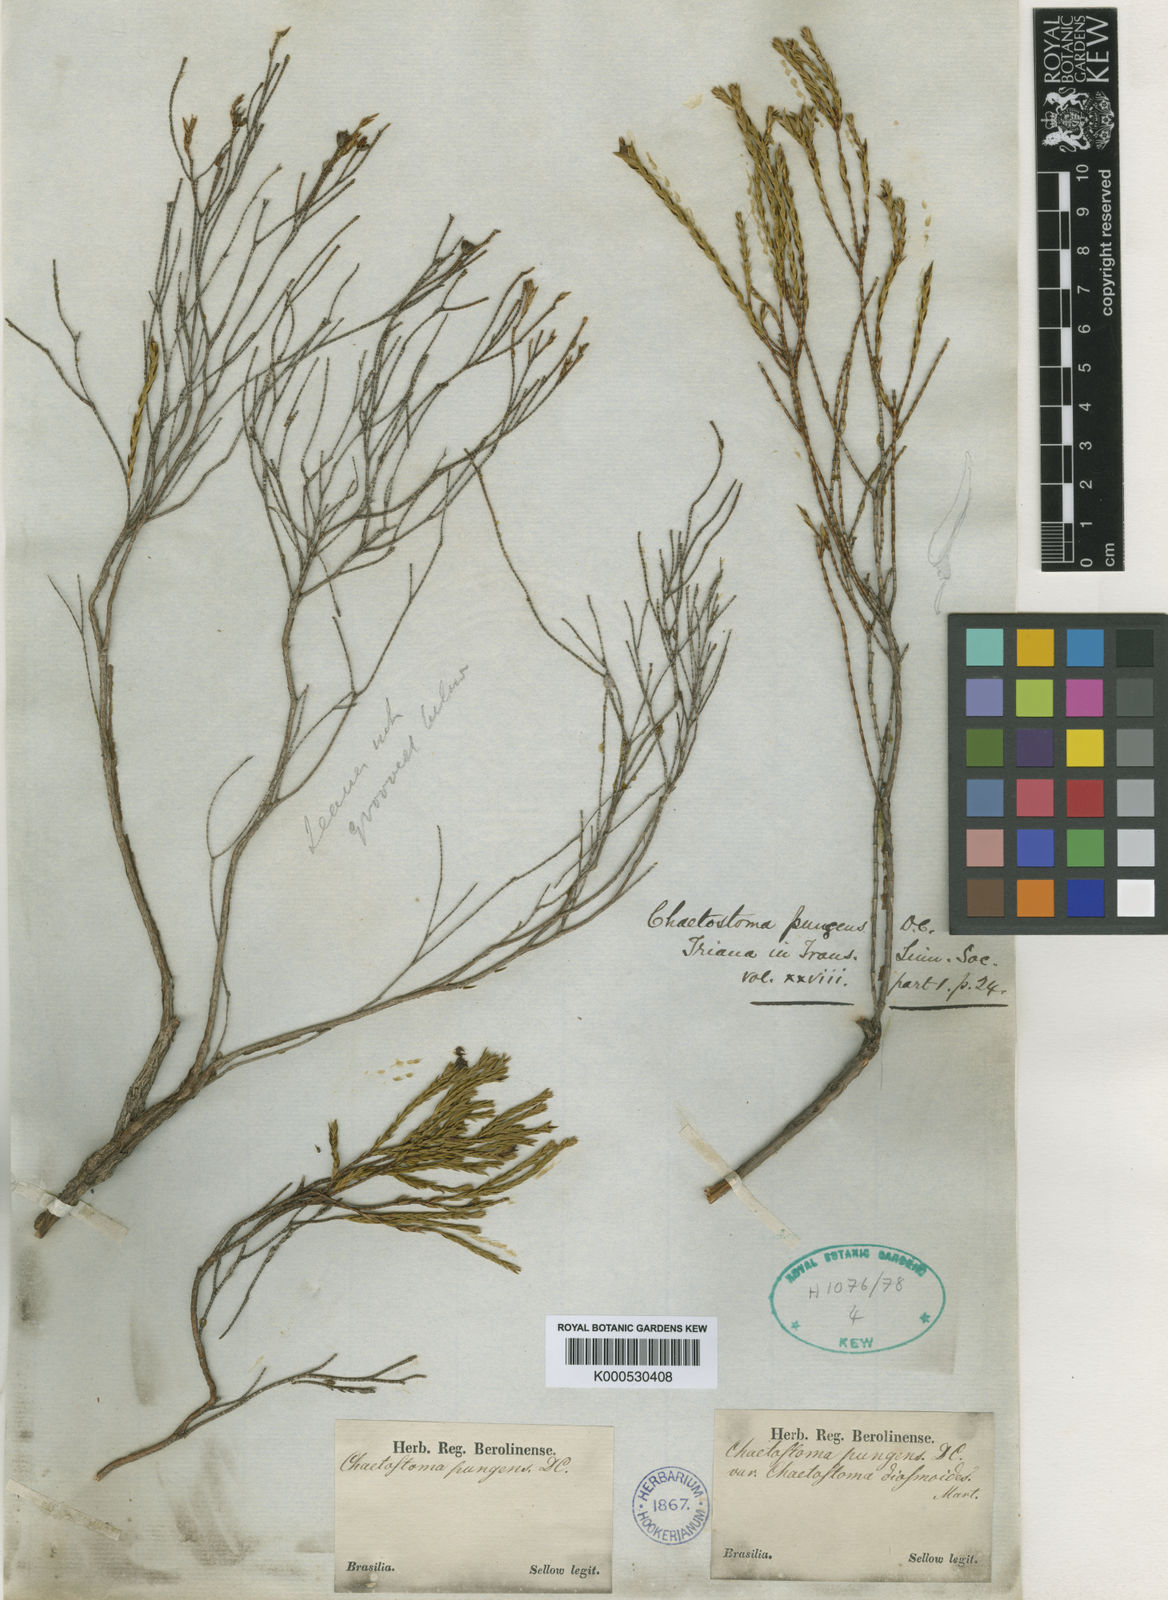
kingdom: Plantae
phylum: Tracheophyta
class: Magnoliopsida
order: Myrtales
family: Melastomataceae
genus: Microlicia
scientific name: Microlicia armata
